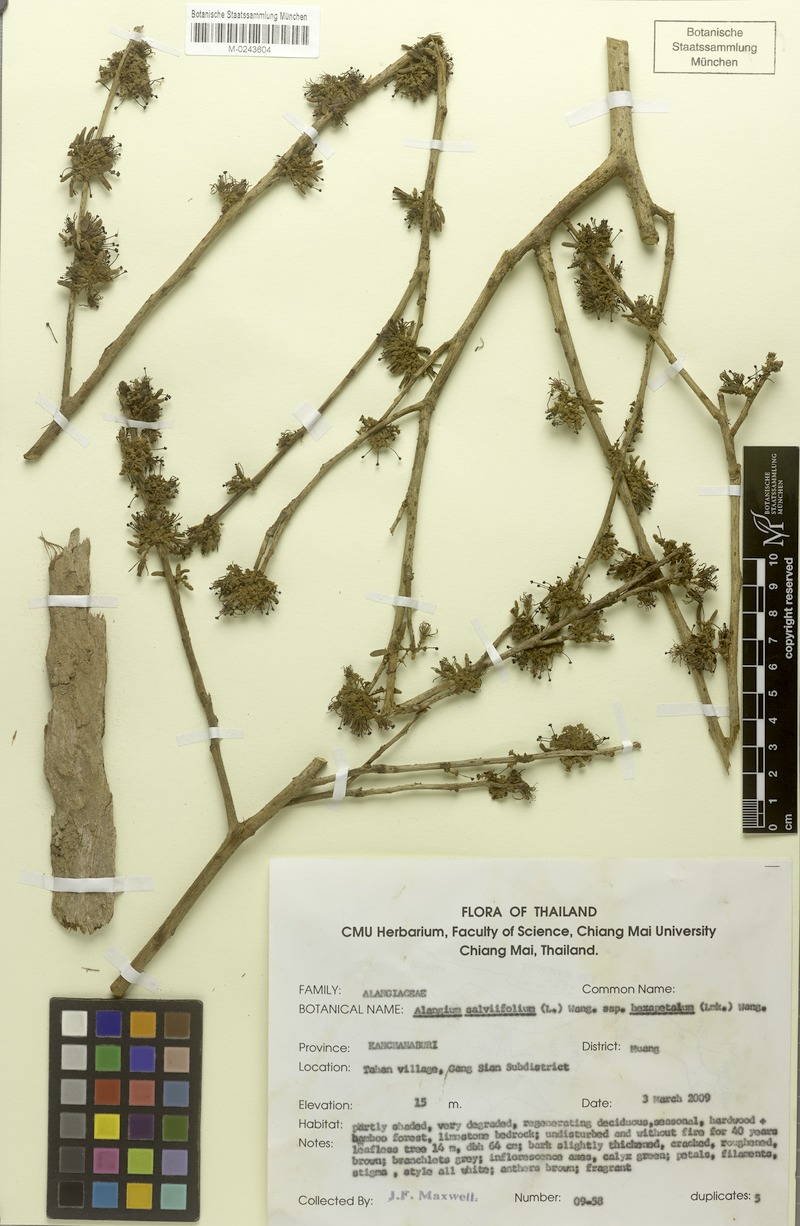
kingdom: Plantae
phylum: Tracheophyta
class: Magnoliopsida
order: Cornales
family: Cornaceae
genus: Alangium
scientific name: Alangium indochinense
